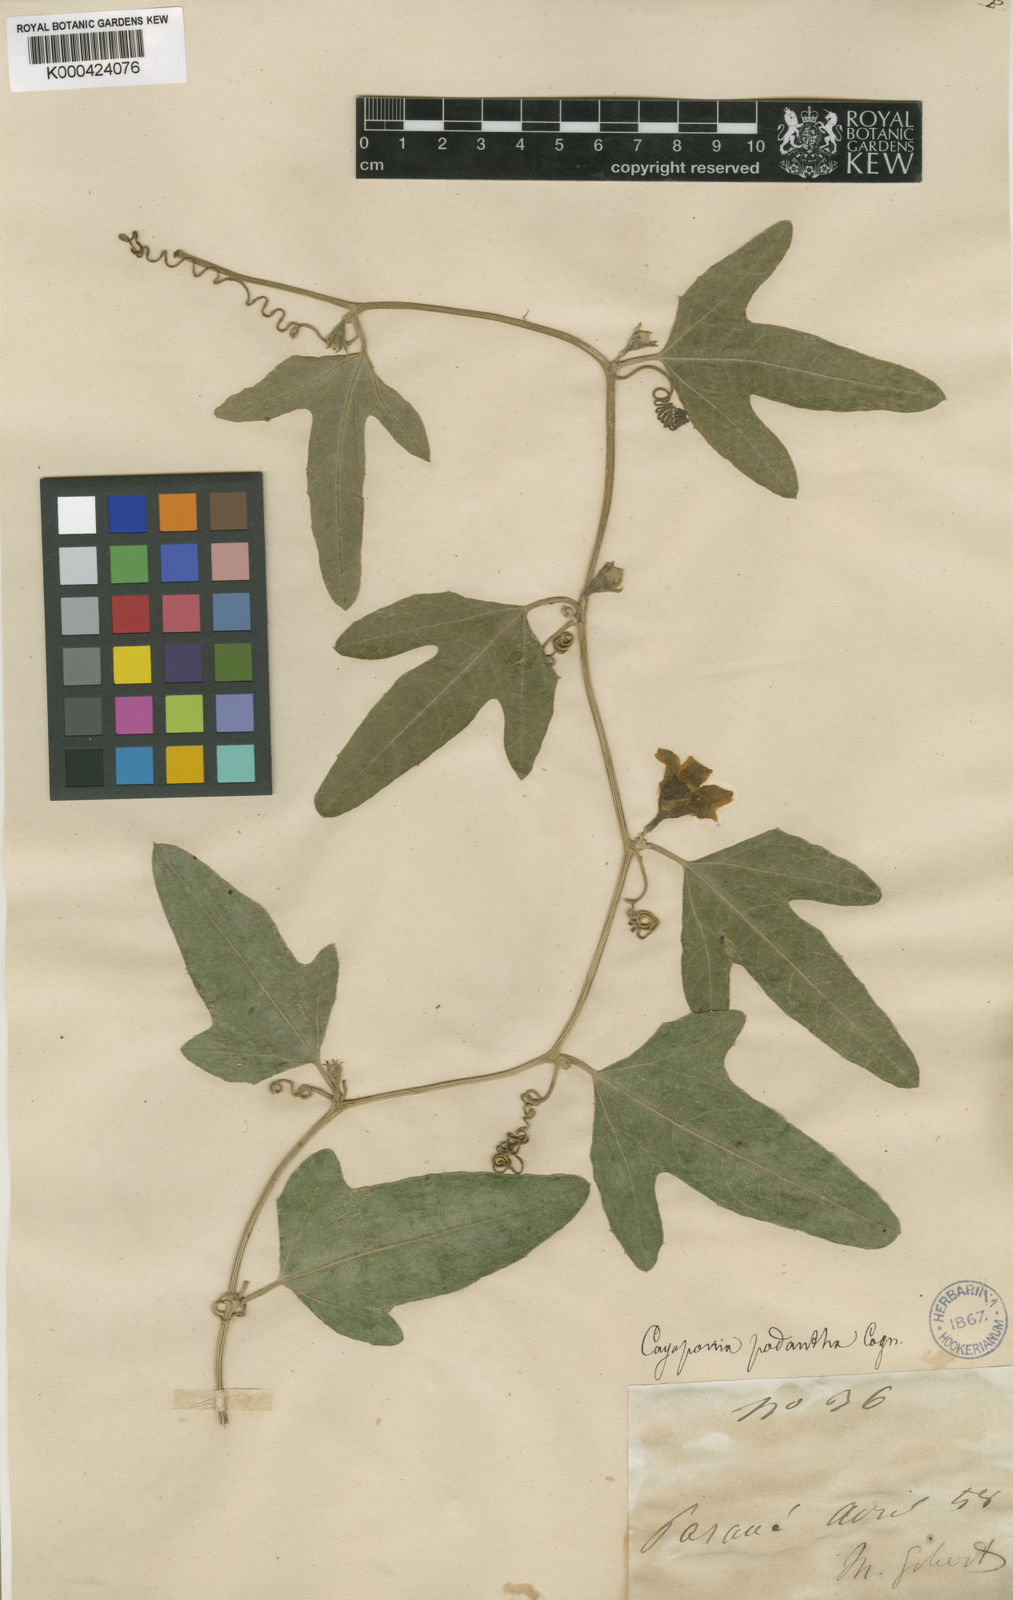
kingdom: Plantae
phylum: Tracheophyta
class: Magnoliopsida
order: Cucurbitales
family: Cucurbitaceae
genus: Cayaponia
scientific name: Cayaponia podantha
